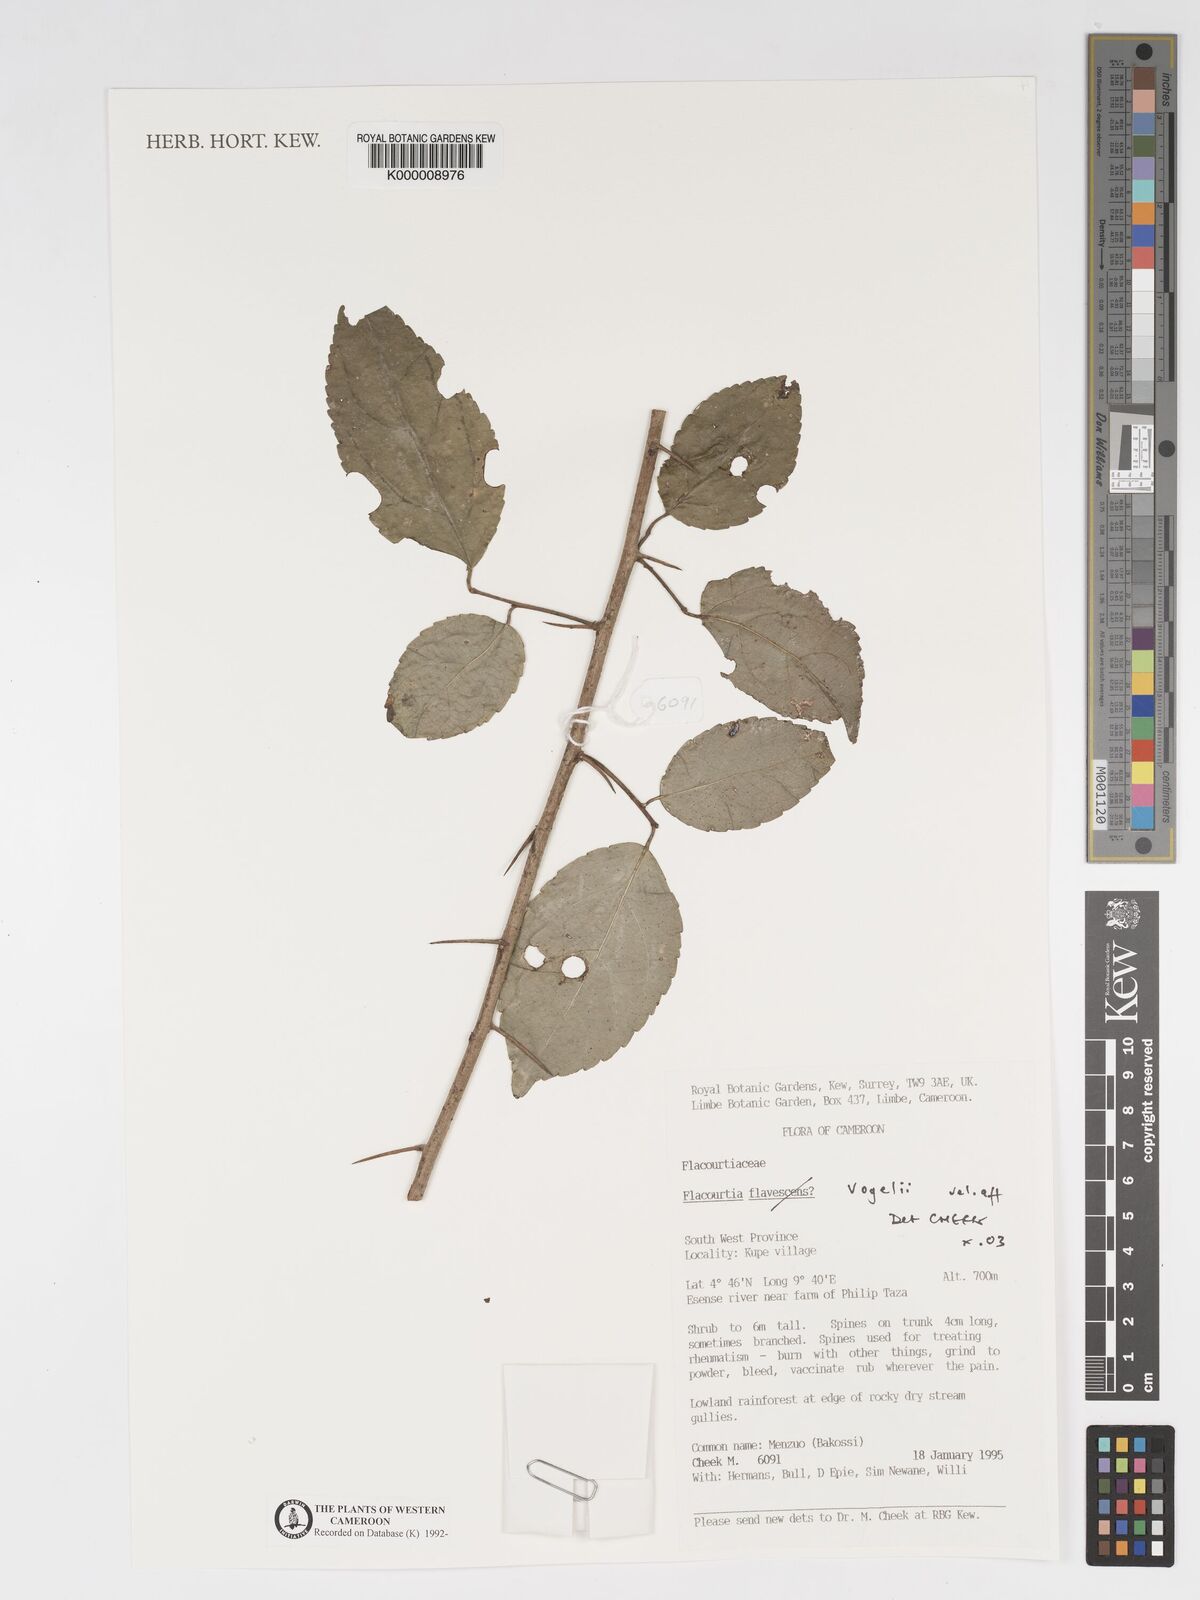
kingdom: Plantae
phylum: Tracheophyta
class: Magnoliopsida
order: Malpighiales
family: Salicaceae
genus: Flacourtia
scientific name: Flacourtia vogelii
